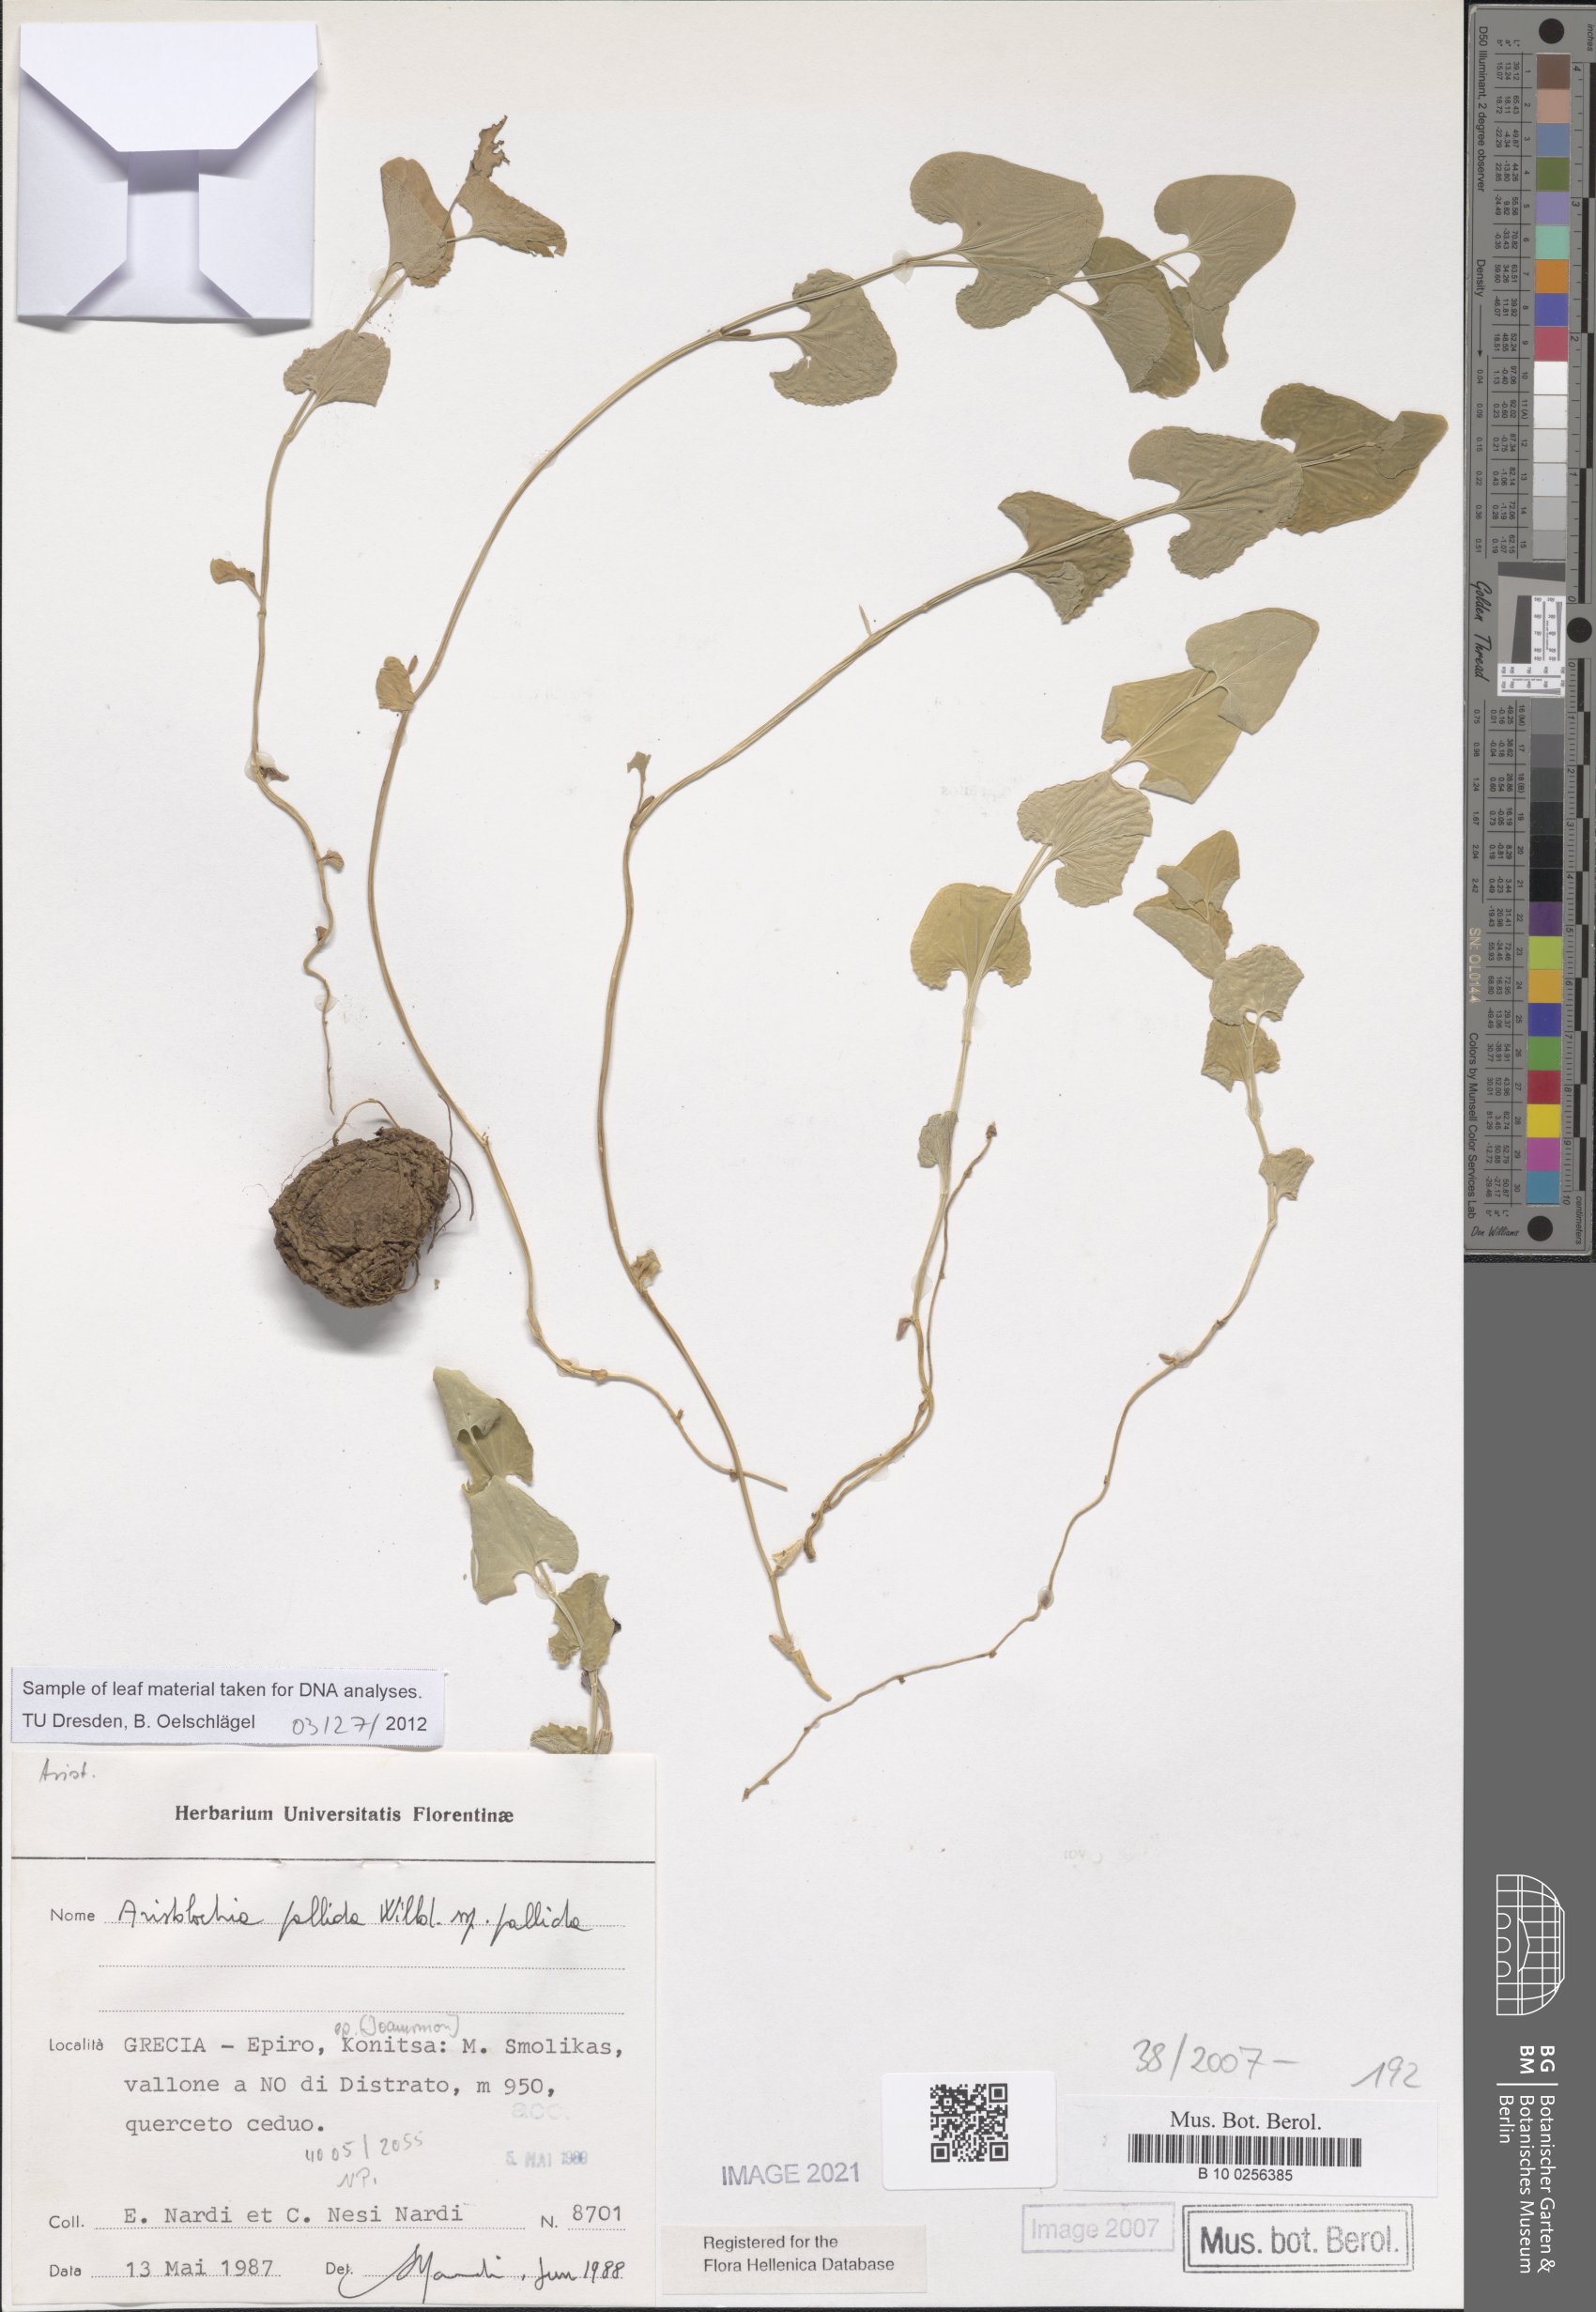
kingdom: Plantae
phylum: Tracheophyta
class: Magnoliopsida
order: Piperales
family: Aristolochiaceae
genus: Aristolochia
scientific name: Aristolochia pallida
